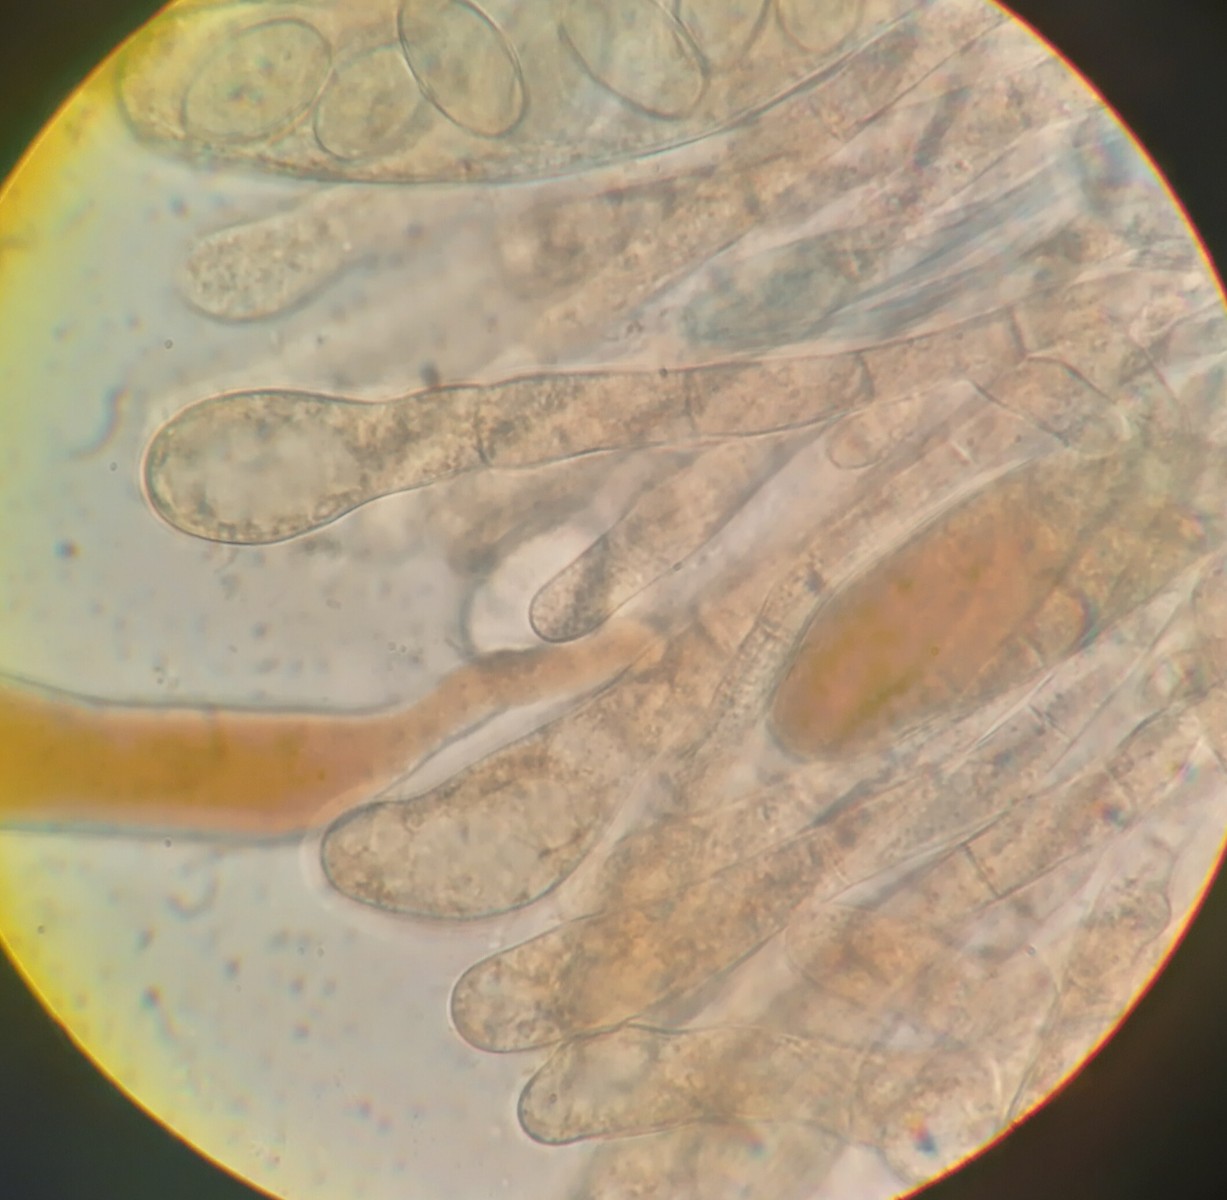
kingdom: Fungi
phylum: Ascomycota
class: Pezizomycetes
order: Pezizales
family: Pezizaceae
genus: Iodophanus
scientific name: Iodophanus carneus
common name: kødfarvet prikbæger
